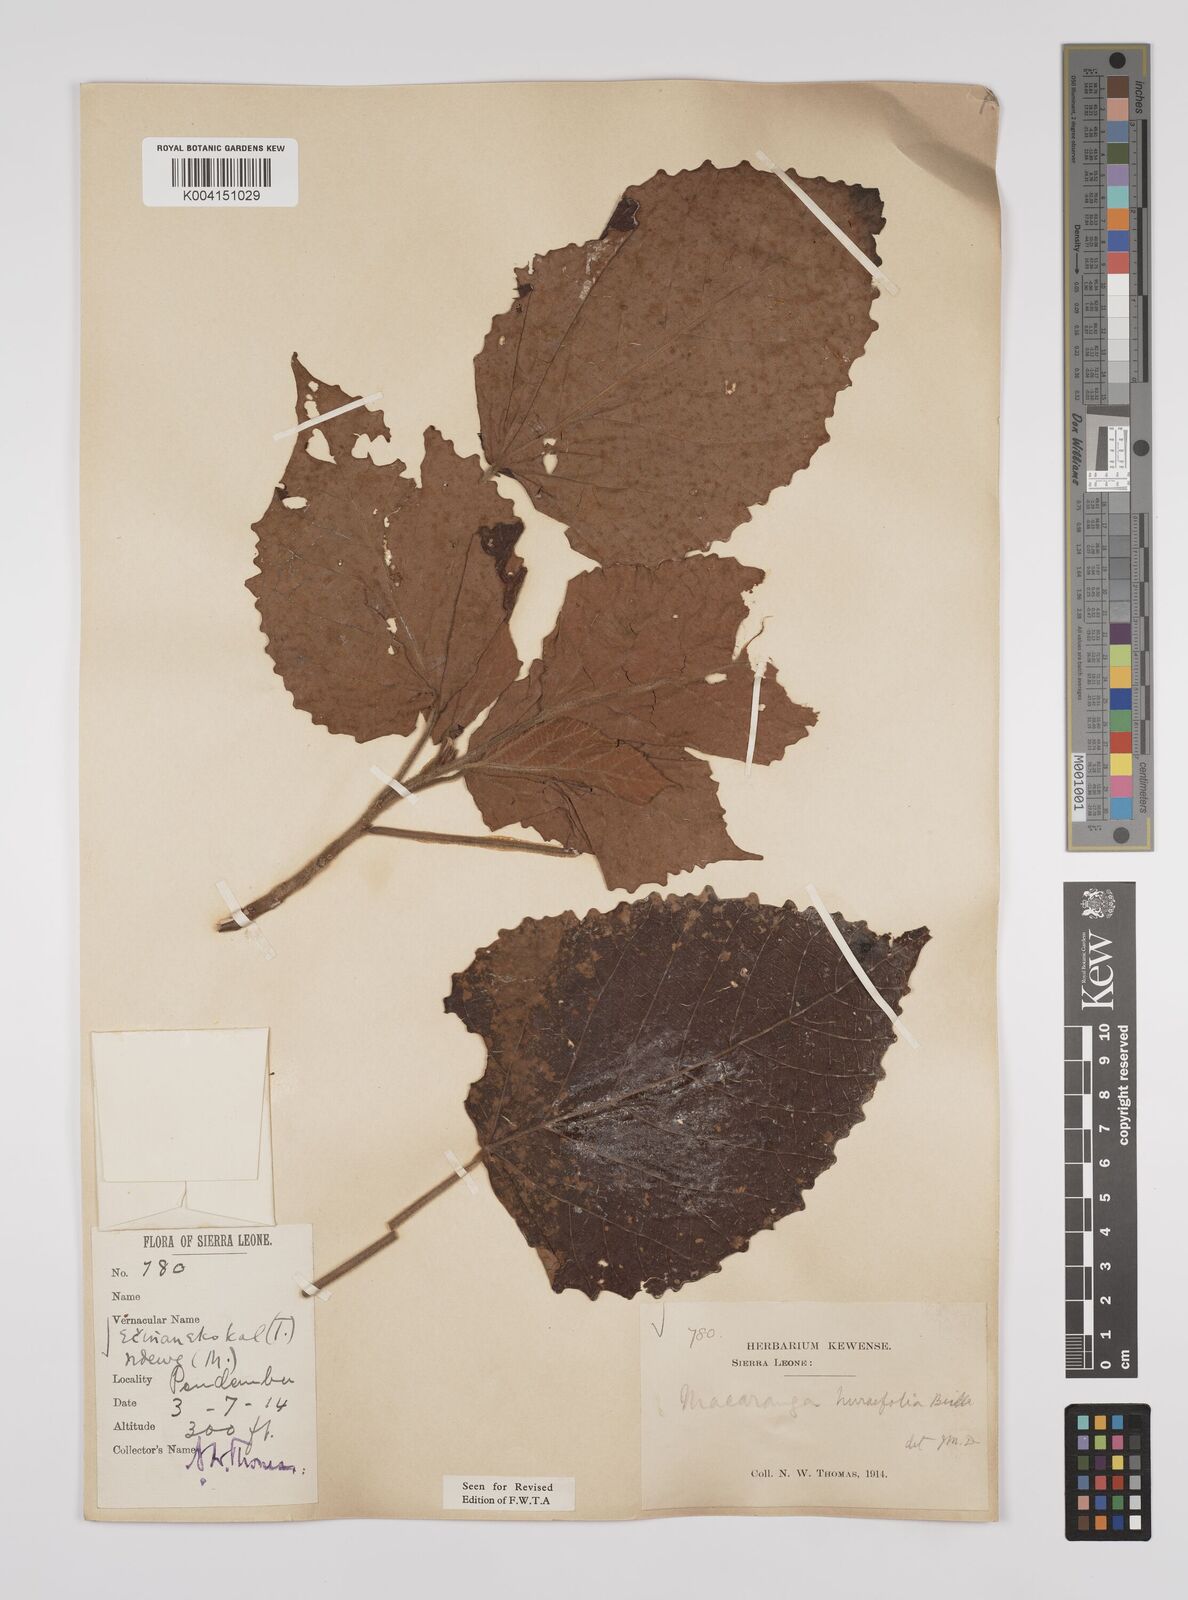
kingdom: Plantae
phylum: Tracheophyta
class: Magnoliopsida
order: Malpighiales
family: Euphorbiaceae
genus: Macaranga
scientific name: Macaranga hurifolia
